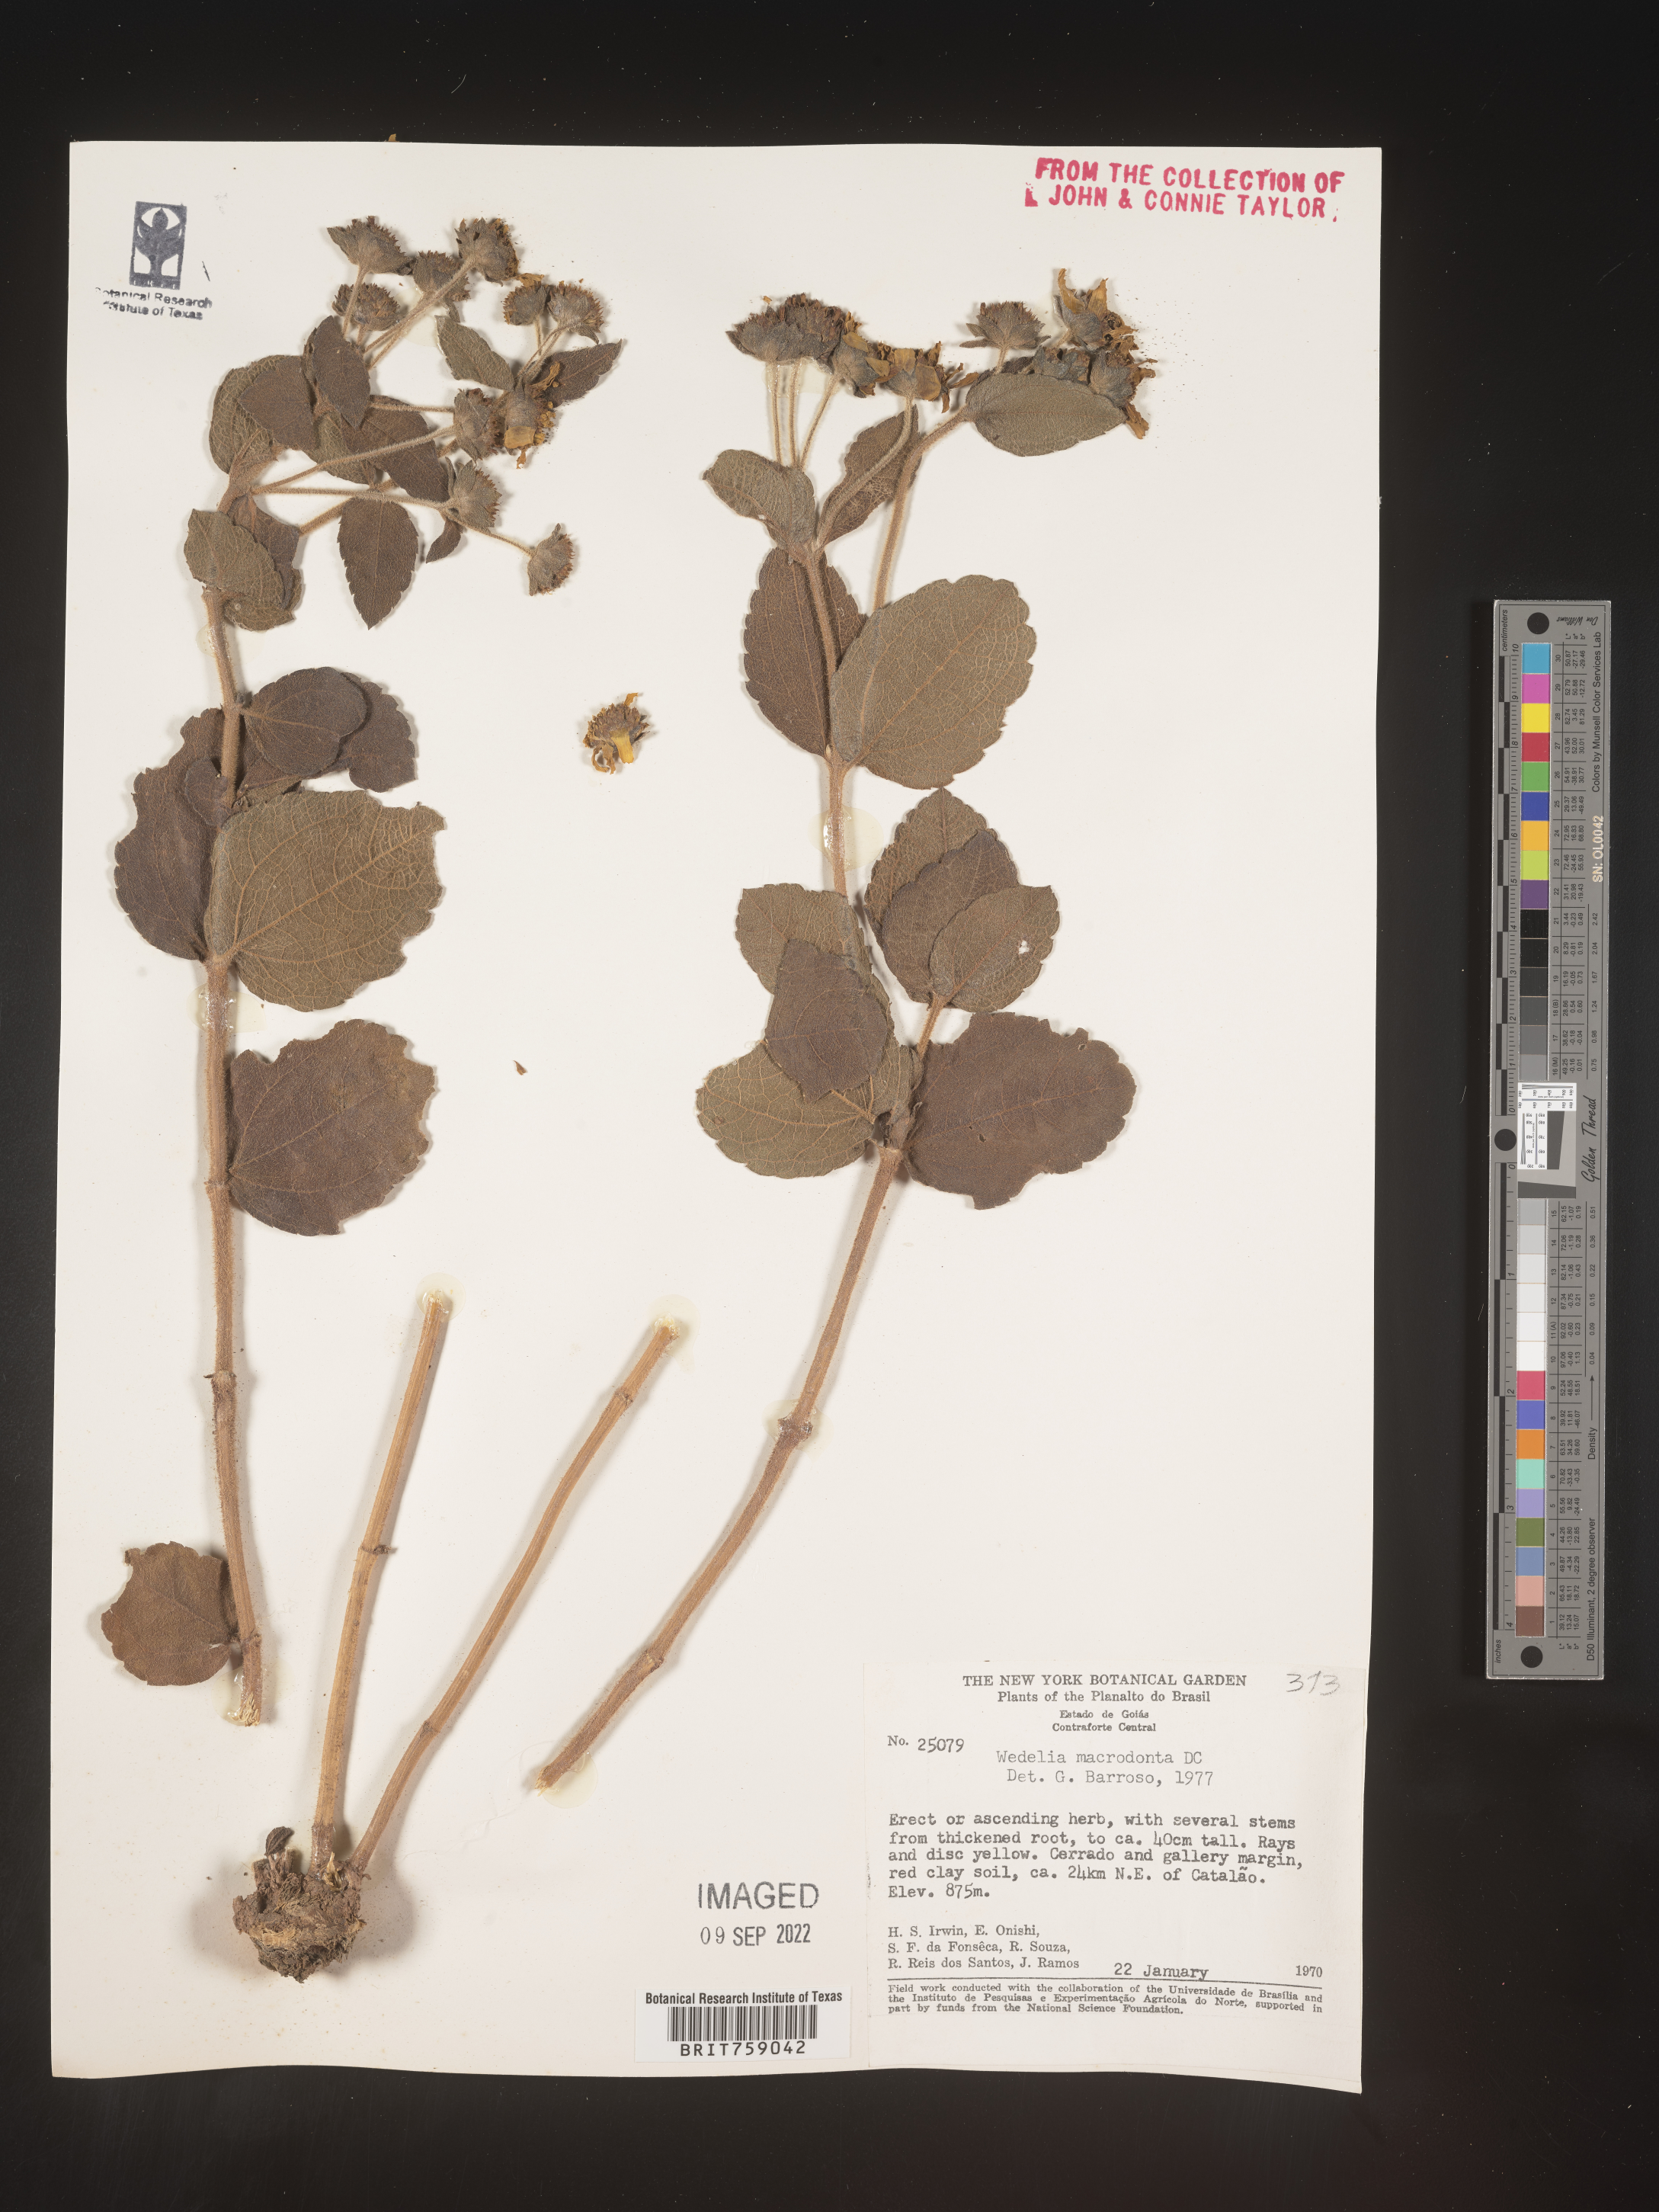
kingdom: Plantae
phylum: Tracheophyta
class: Magnoliopsida
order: Asterales
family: Asteraceae
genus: Wedelia
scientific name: Wedelia
